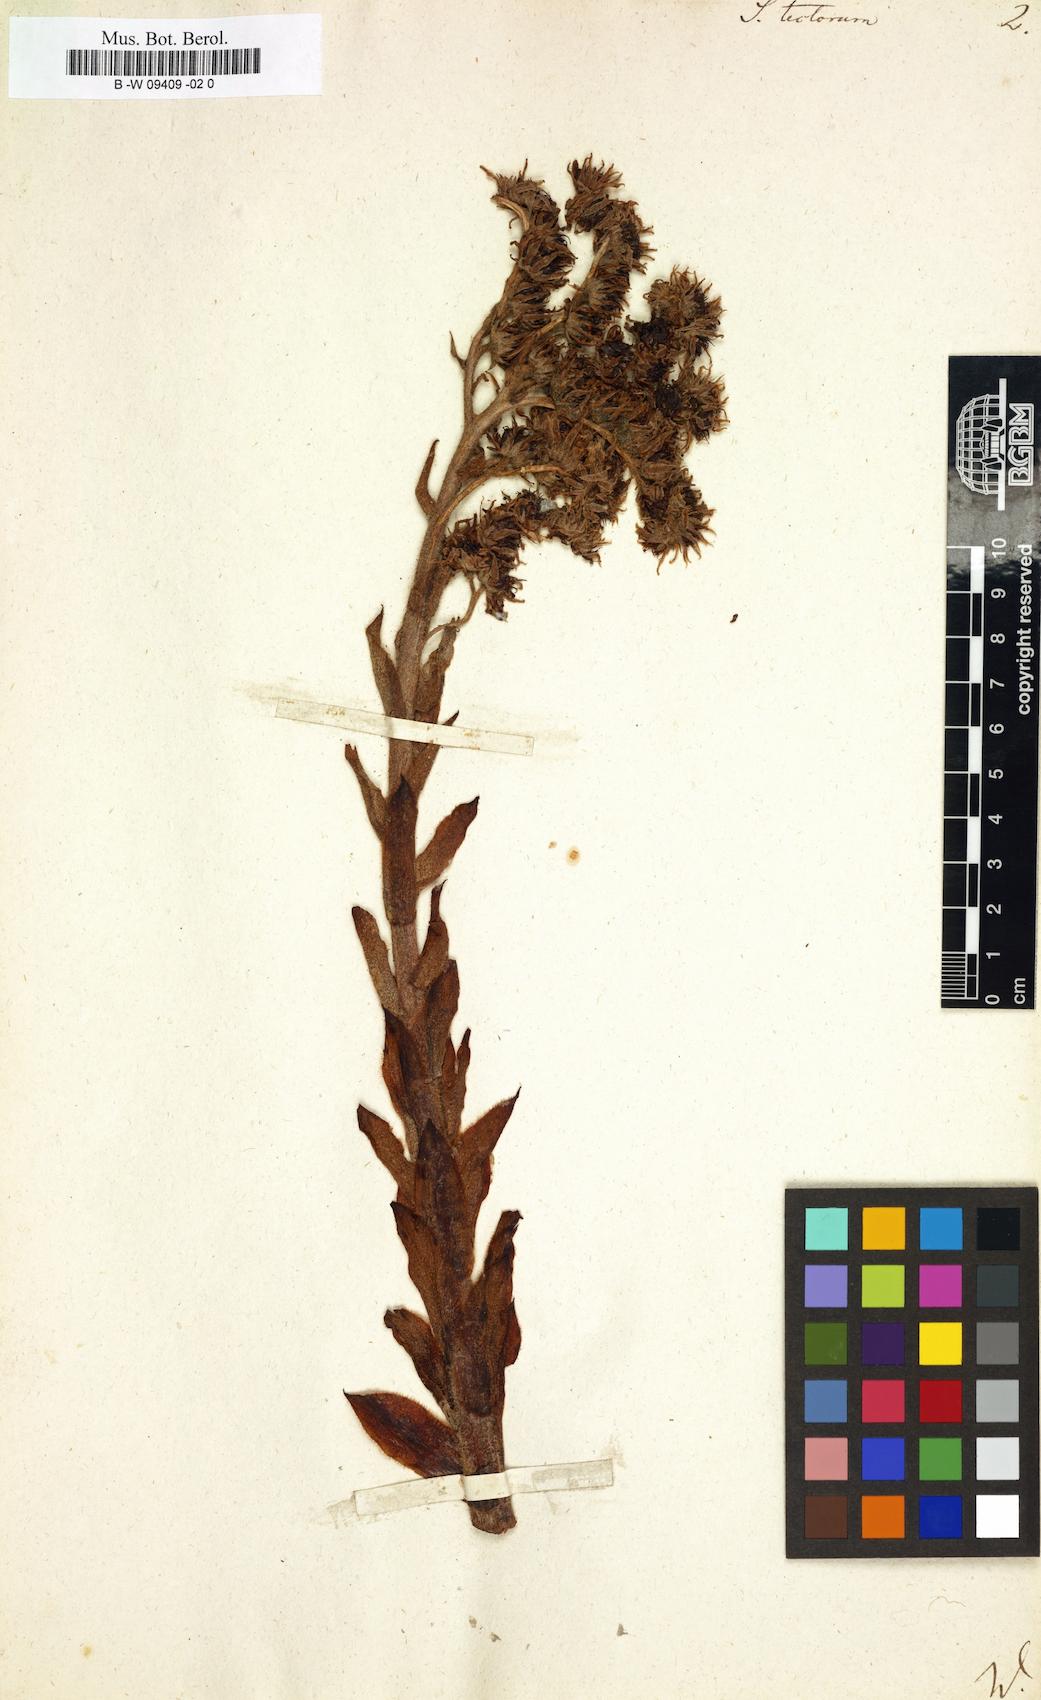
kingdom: Plantae
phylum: Tracheophyta
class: Magnoliopsida
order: Saxifragales
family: Crassulaceae
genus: Sempervivum
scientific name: Sempervivum tectorum
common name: House-leek
